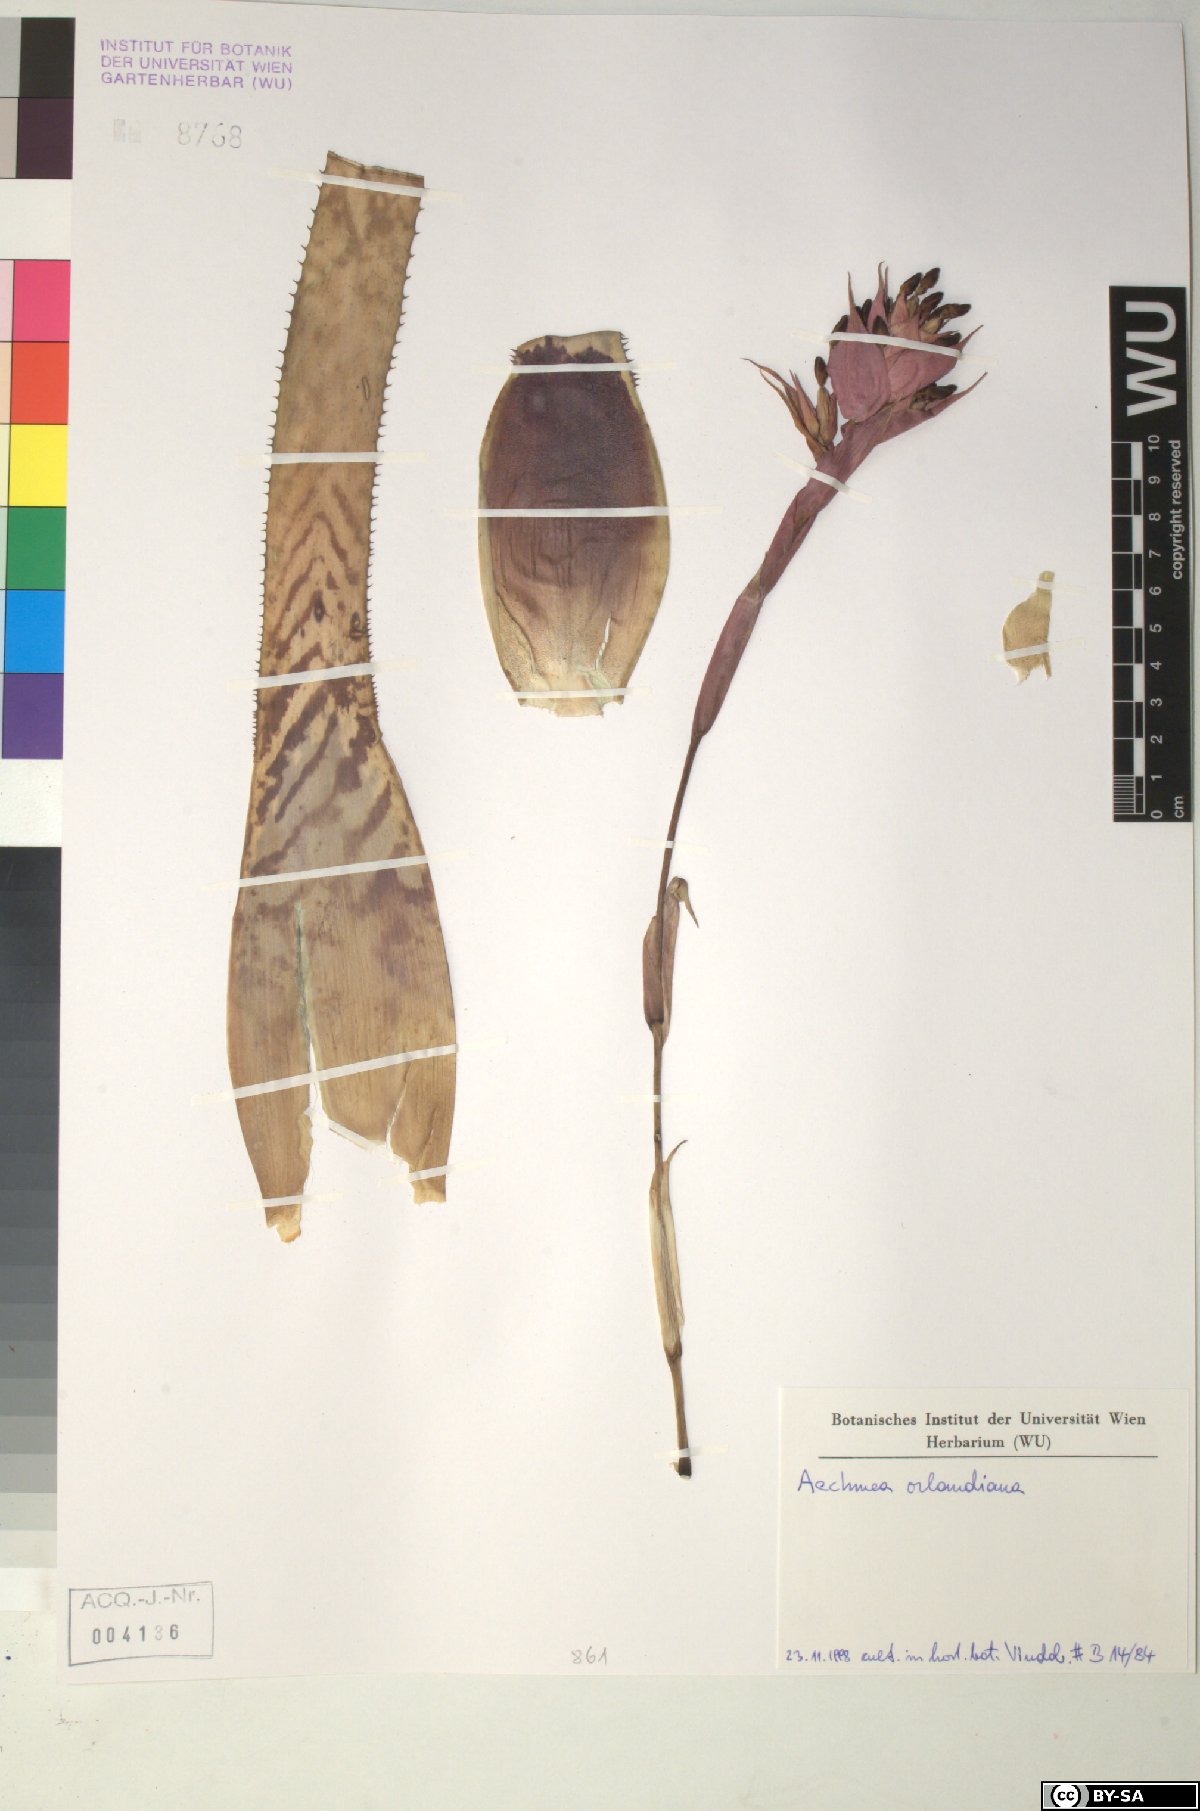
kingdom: Plantae
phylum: Tracheophyta
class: Liliopsida
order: Poales
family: Bromeliaceae
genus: Aechmea
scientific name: Aechmea orlandiana
